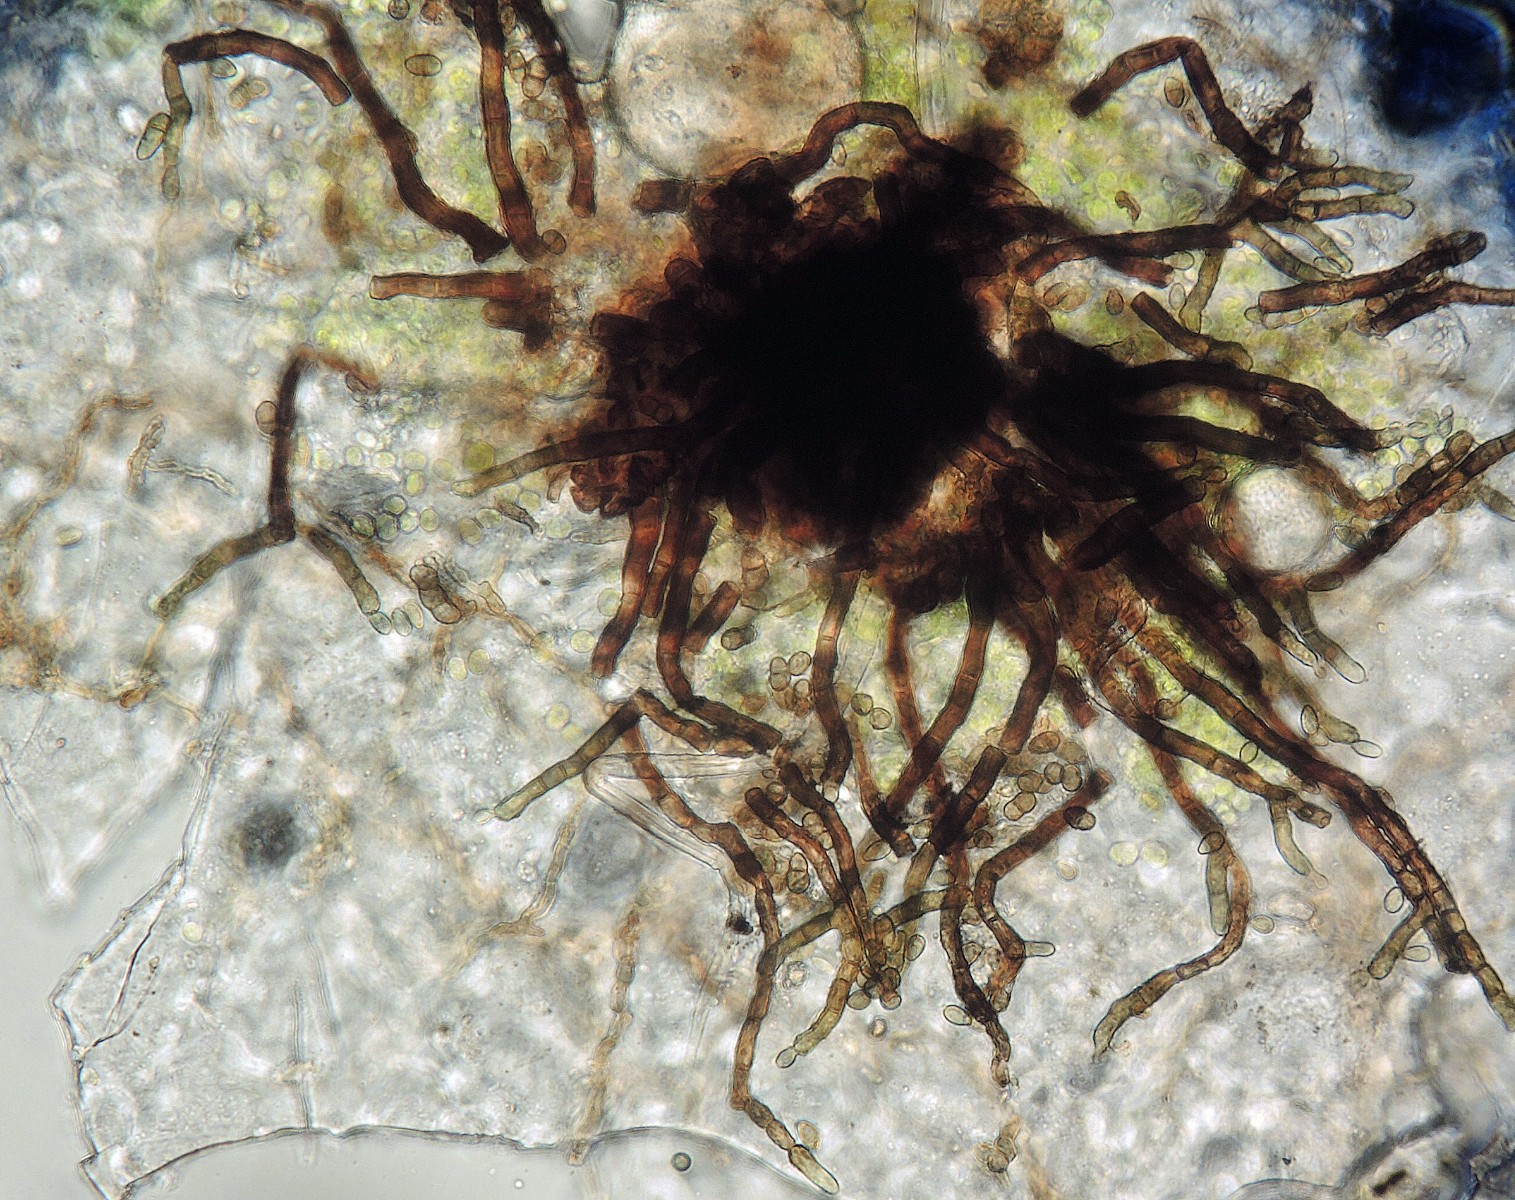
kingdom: Fungi
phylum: Ascomycota
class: Dothideomycetes
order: Capnodiales
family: Cladosporiaceae
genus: Cladosporium
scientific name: Cladosporium
